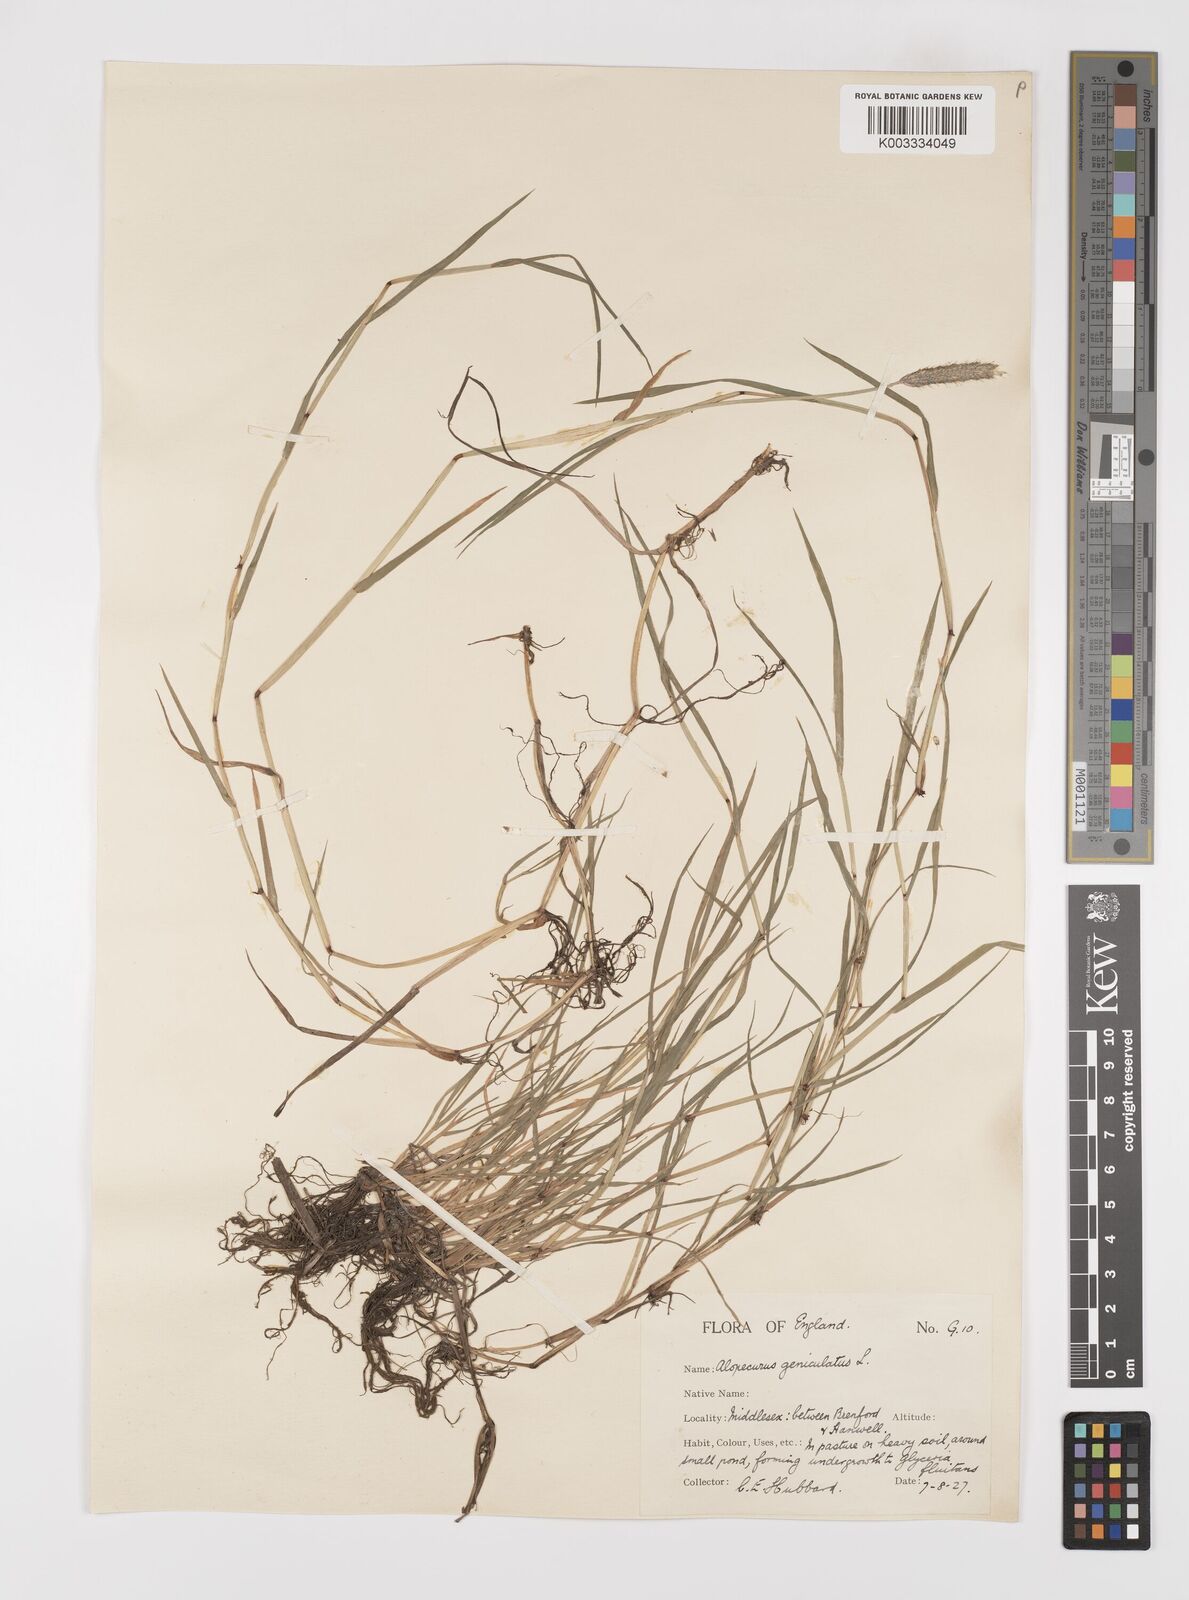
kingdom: Plantae
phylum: Tracheophyta
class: Liliopsida
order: Poales
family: Poaceae
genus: Alopecurus
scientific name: Alopecurus geniculatus
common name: Water foxtail
